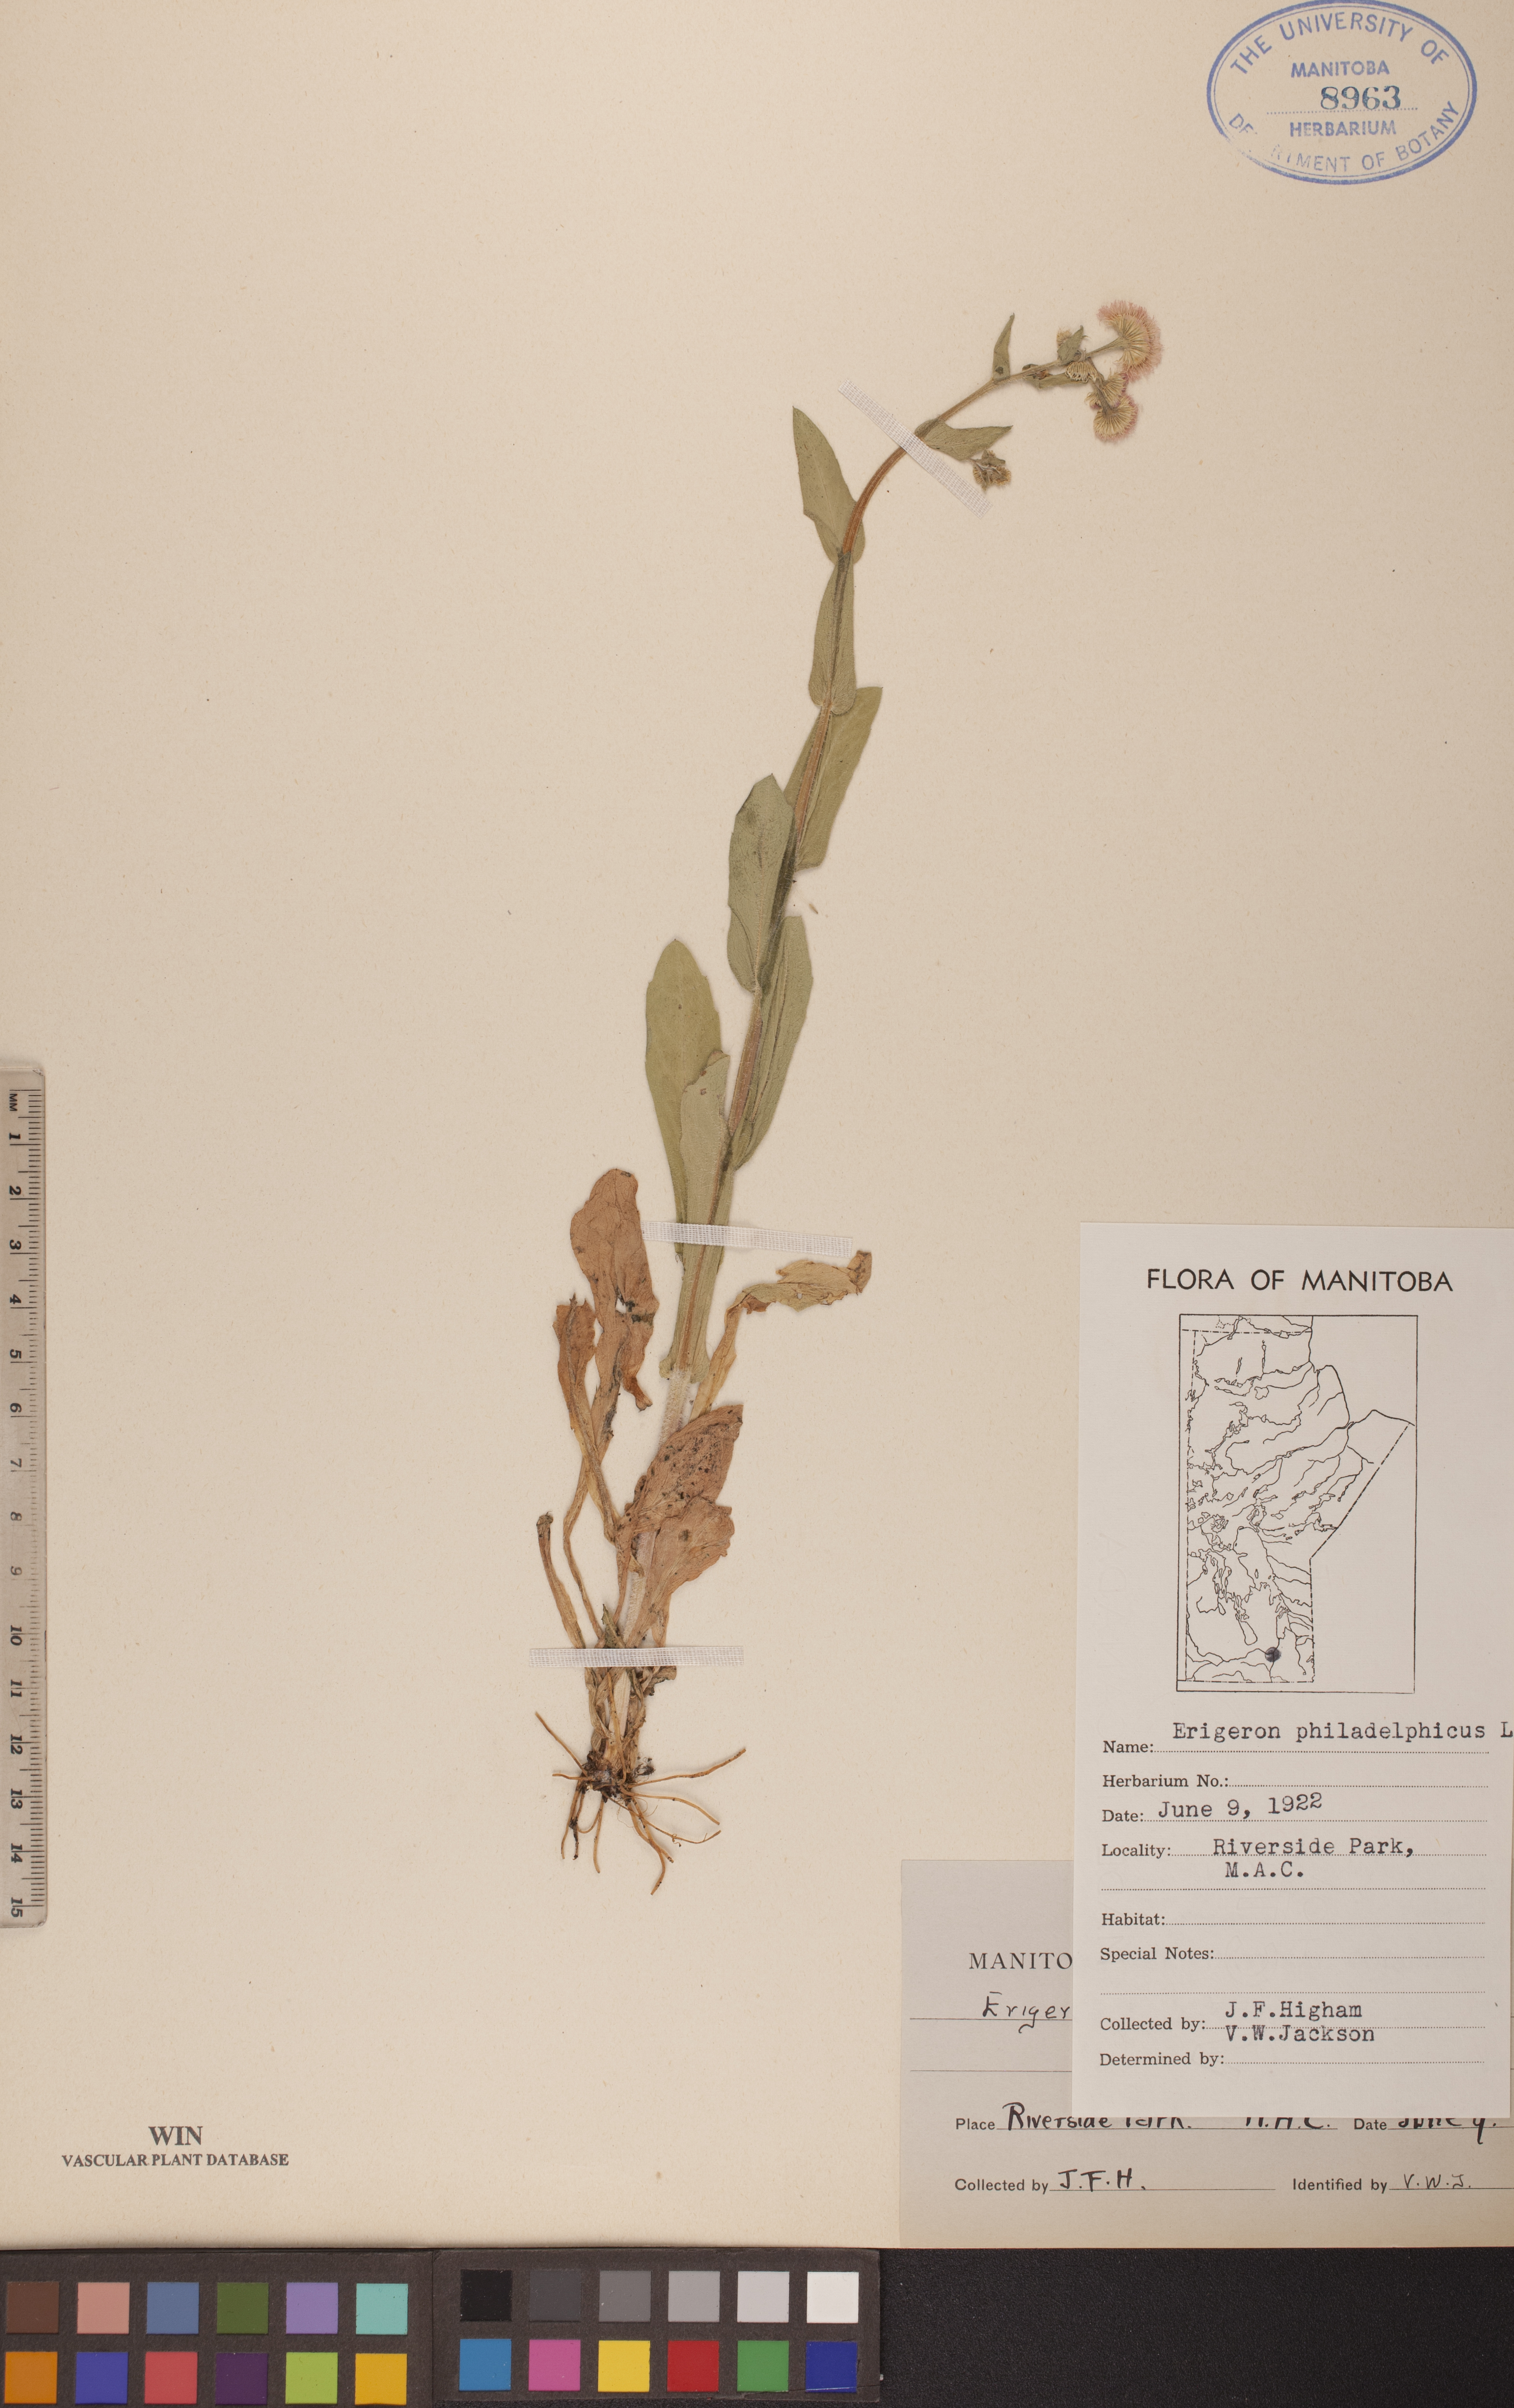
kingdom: Plantae
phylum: Tracheophyta
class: Magnoliopsida
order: Asterales
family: Asteraceae
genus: Erigeron
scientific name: Erigeron philadelphicus
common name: Robin's-plantain
